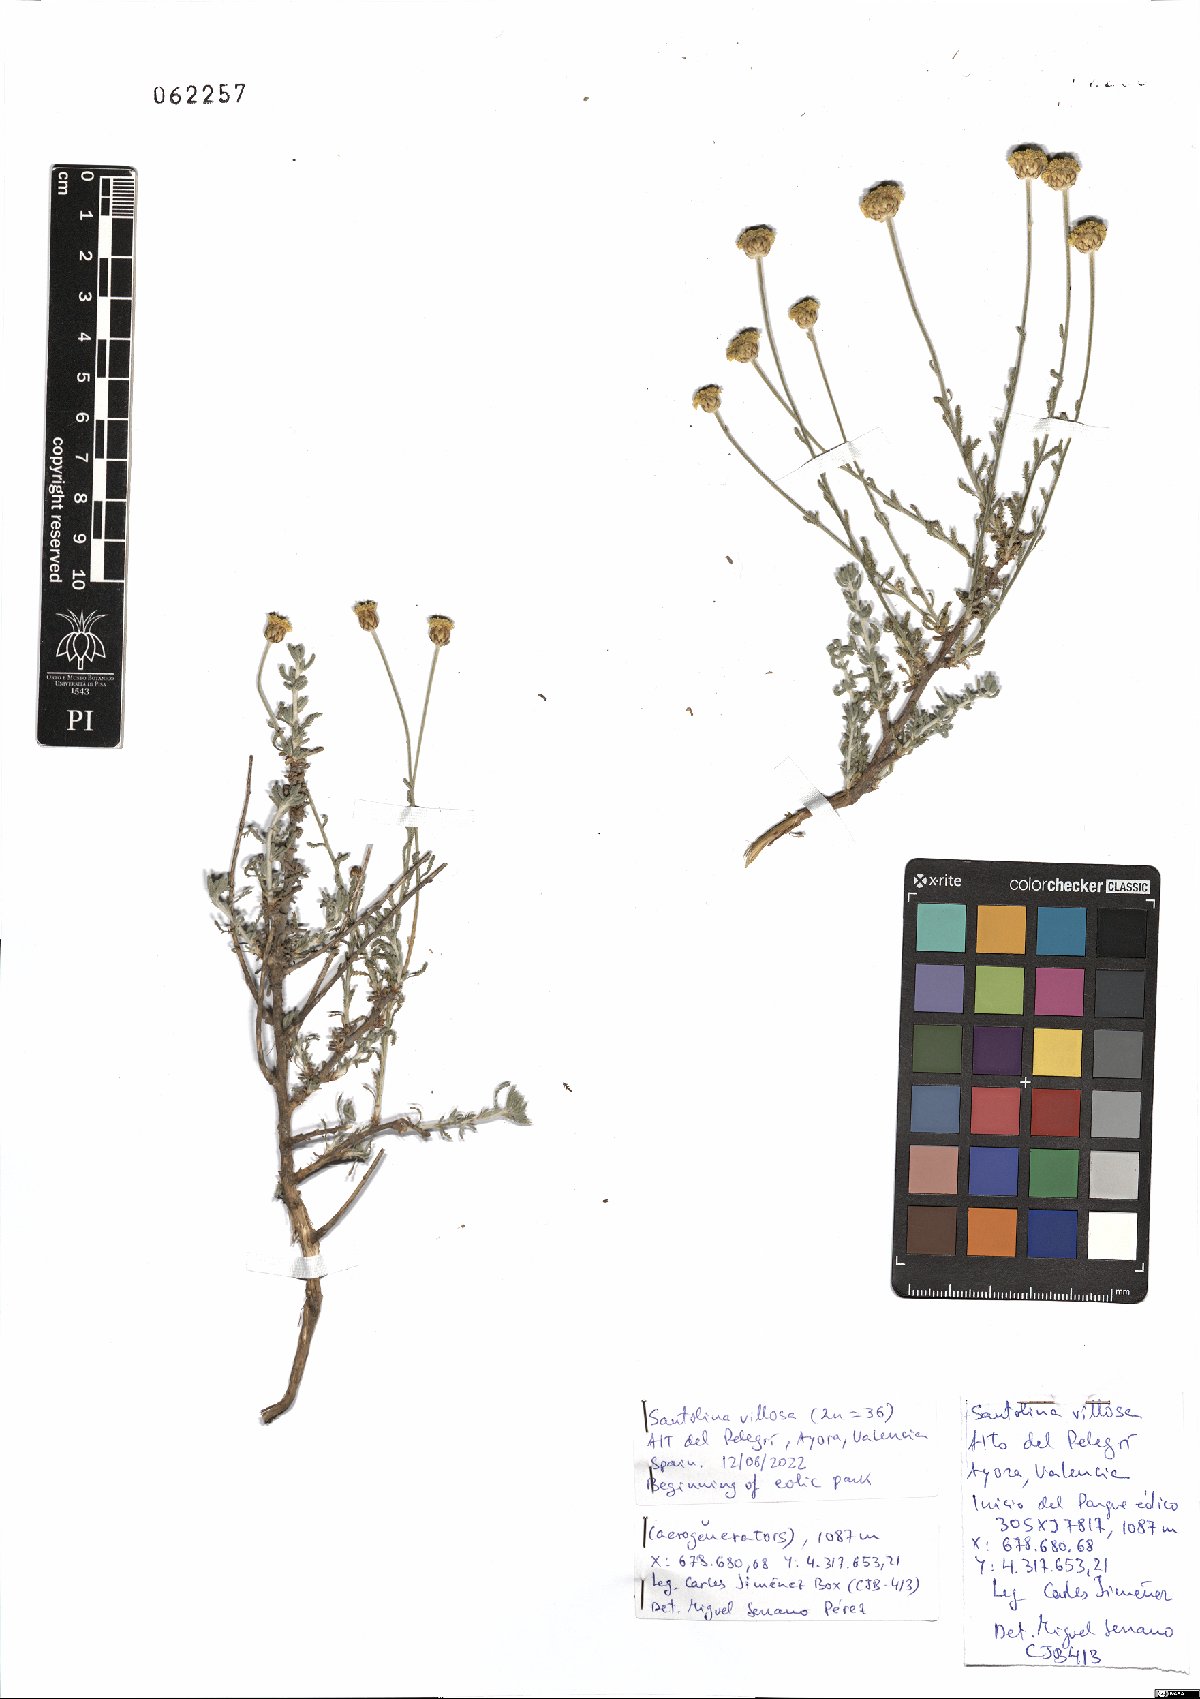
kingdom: Plantae
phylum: Tracheophyta
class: Magnoliopsida
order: Asterales
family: Asteraceae
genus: Santolina
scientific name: Santolina chamaecyparissus
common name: Lavender-cotton
